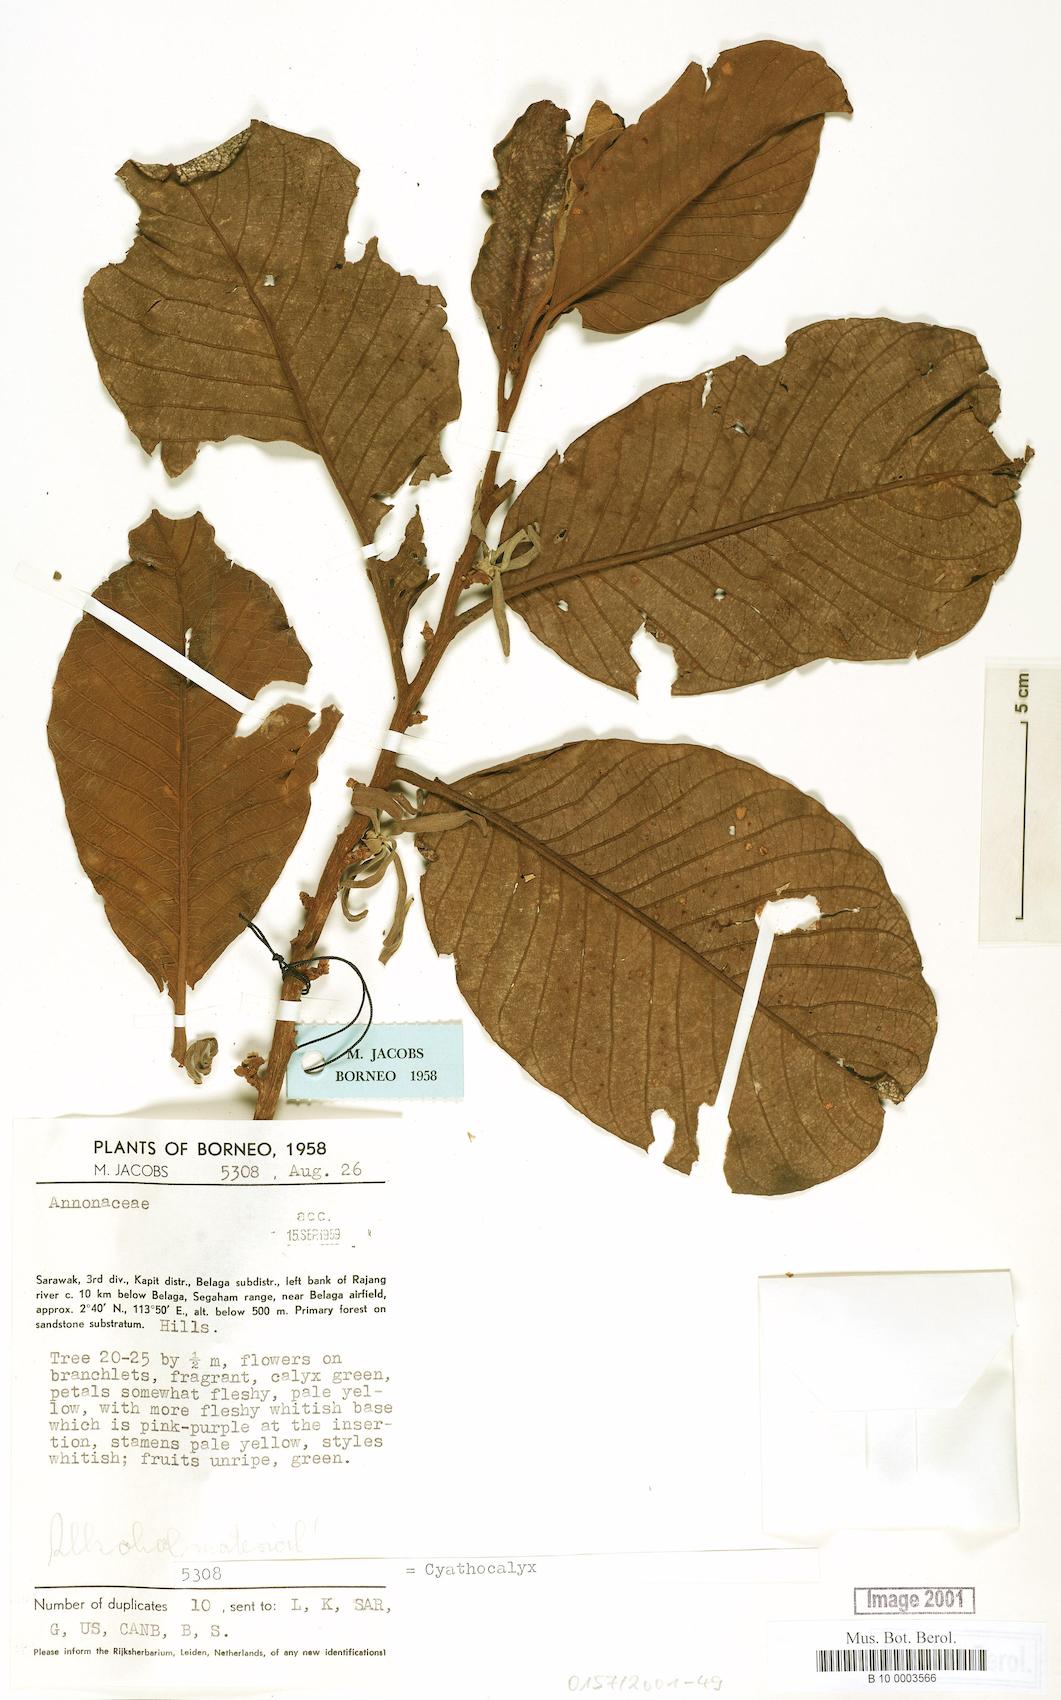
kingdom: Plantae
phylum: Tracheophyta
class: Magnoliopsida
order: Magnoliales
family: Annonaceae
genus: Cyathocalyx
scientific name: Cyathocalyx
